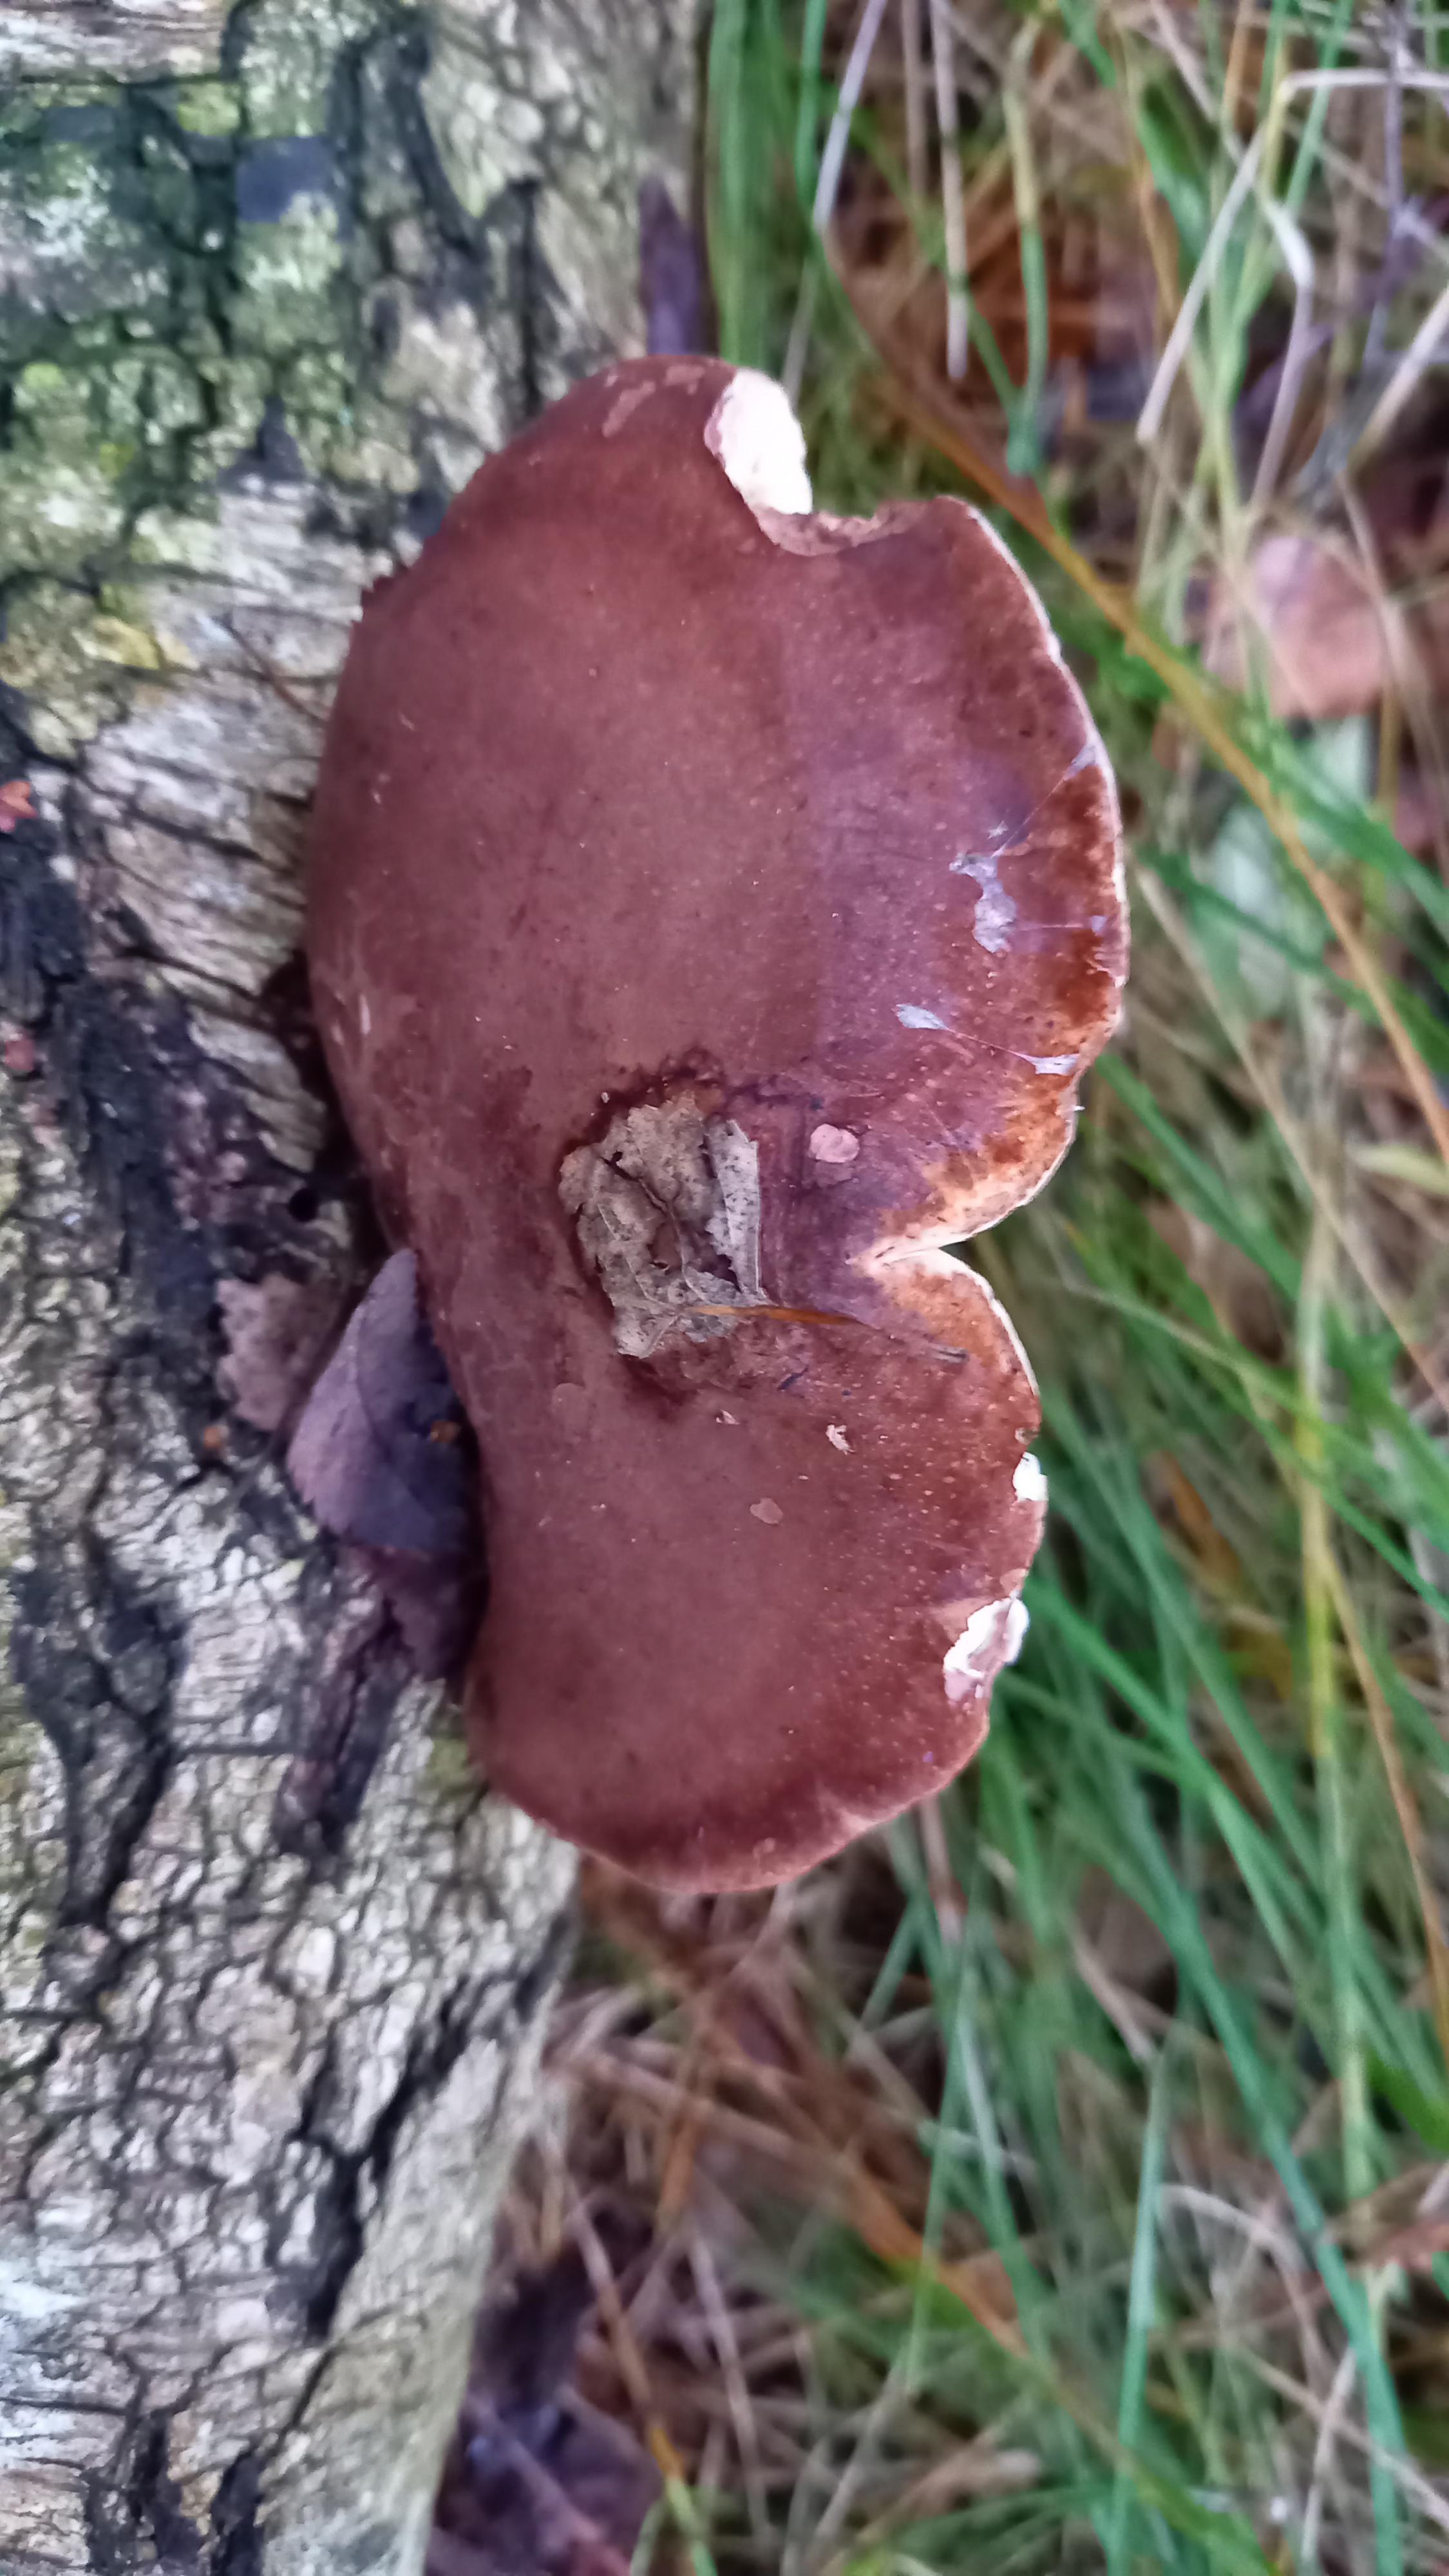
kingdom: Fungi
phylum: Basidiomycota
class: Agaricomycetes
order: Polyporales
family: Fomitopsidaceae
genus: Fomitopsis
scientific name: Fomitopsis betulina
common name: birkeporesvamp
